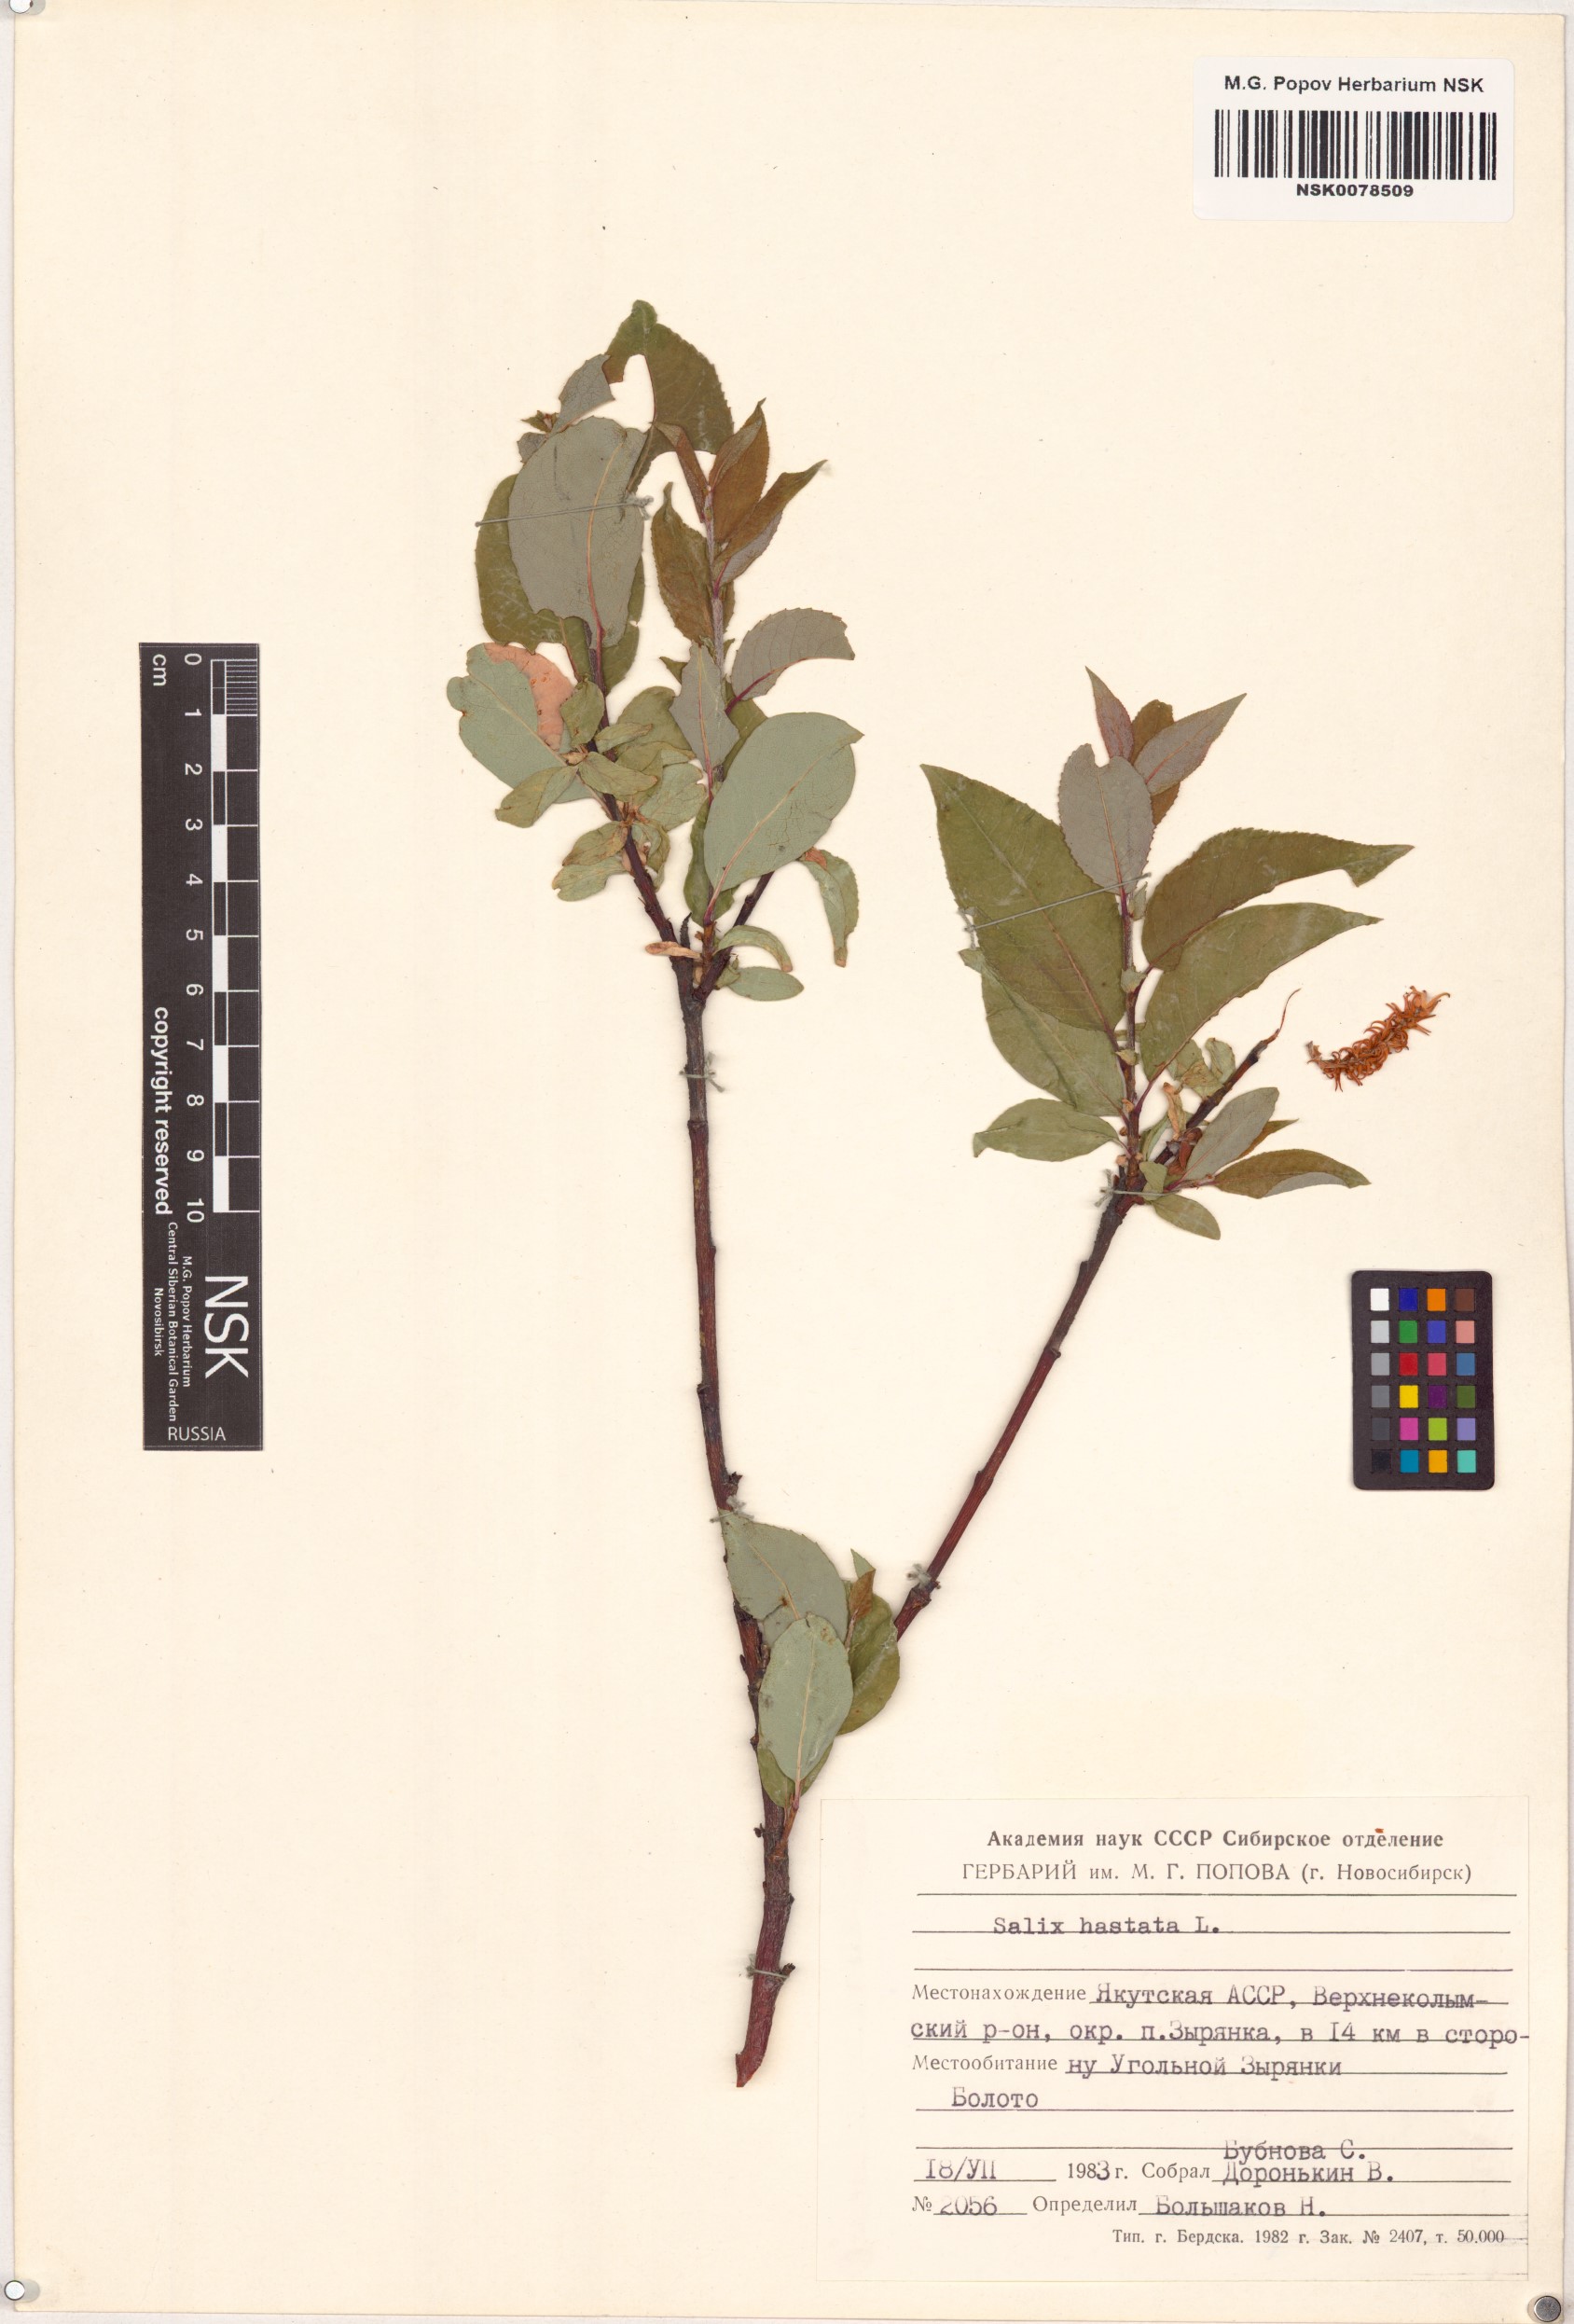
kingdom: Plantae
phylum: Tracheophyta
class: Magnoliopsida
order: Malpighiales
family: Salicaceae
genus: Salix
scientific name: Salix hastata
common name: Halberd willow
